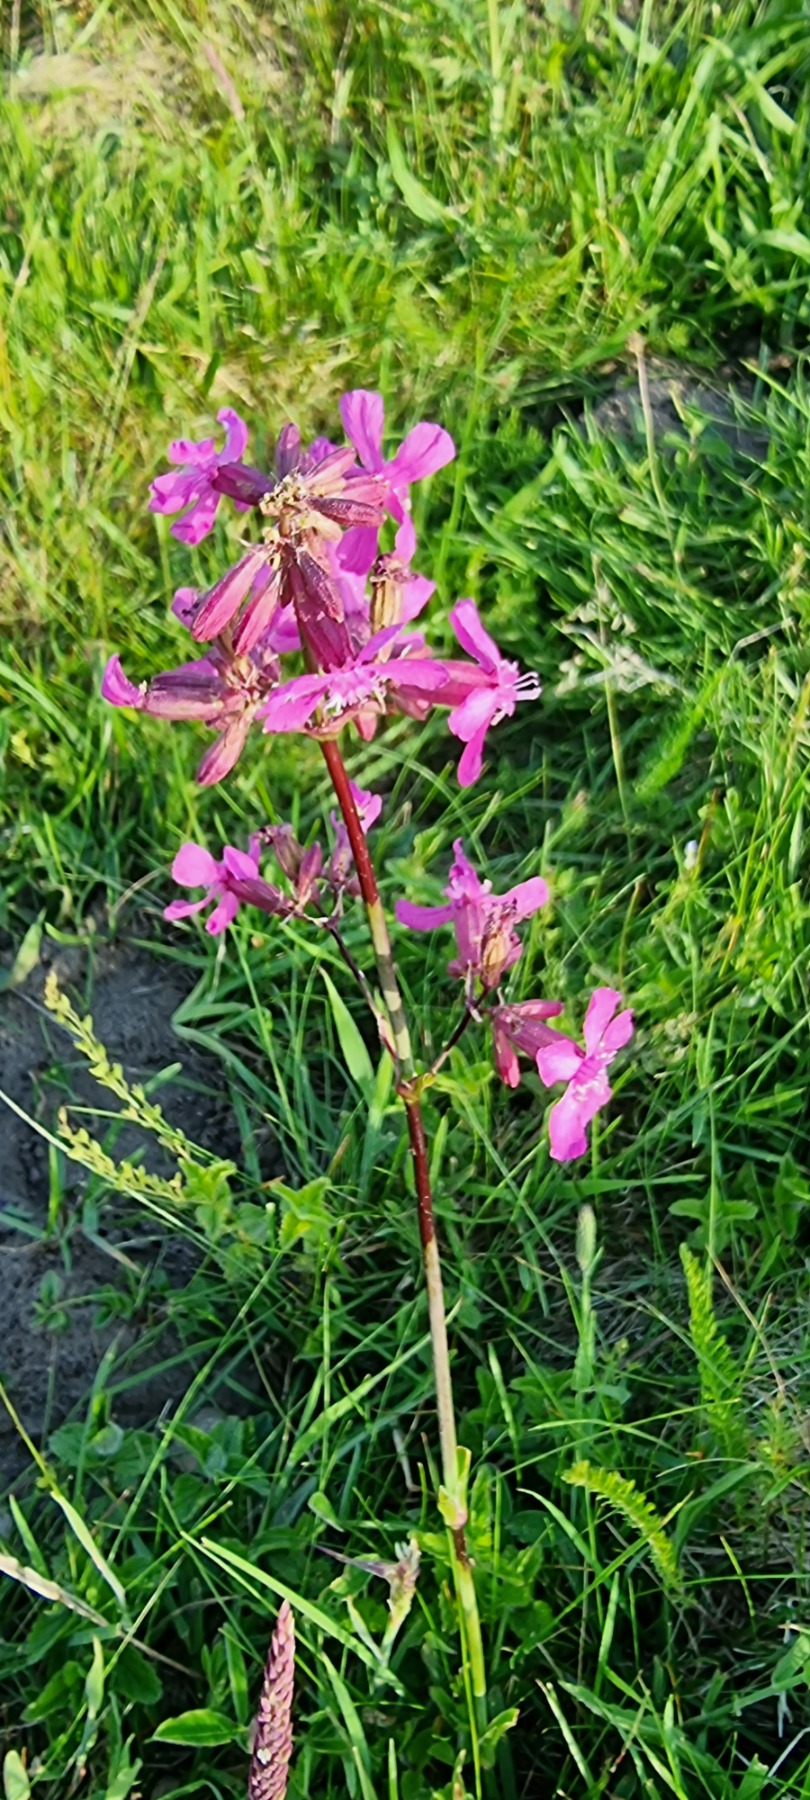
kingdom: Plantae
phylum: Tracheophyta
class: Magnoliopsida
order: Caryophyllales
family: Caryophyllaceae
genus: Viscaria
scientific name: Viscaria vulgaris
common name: Tjærenellike
